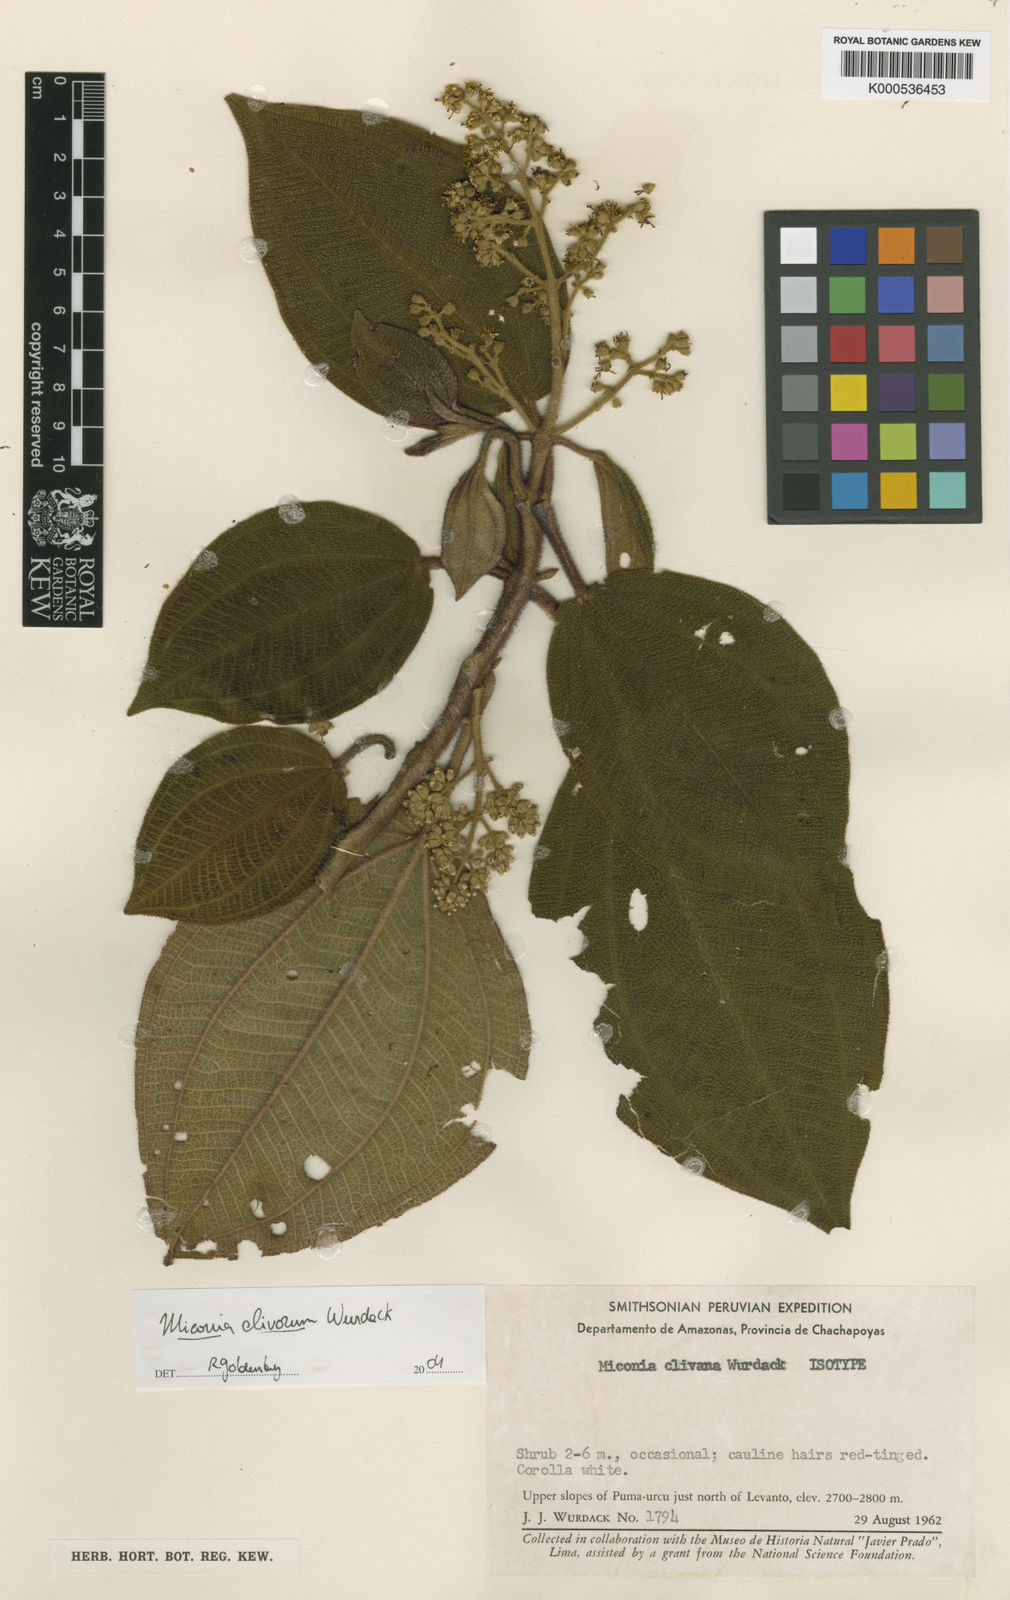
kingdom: Plantae
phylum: Tracheophyta
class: Magnoliopsida
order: Myrtales
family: Melastomataceae
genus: Miconia
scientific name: Miconia clivorum
